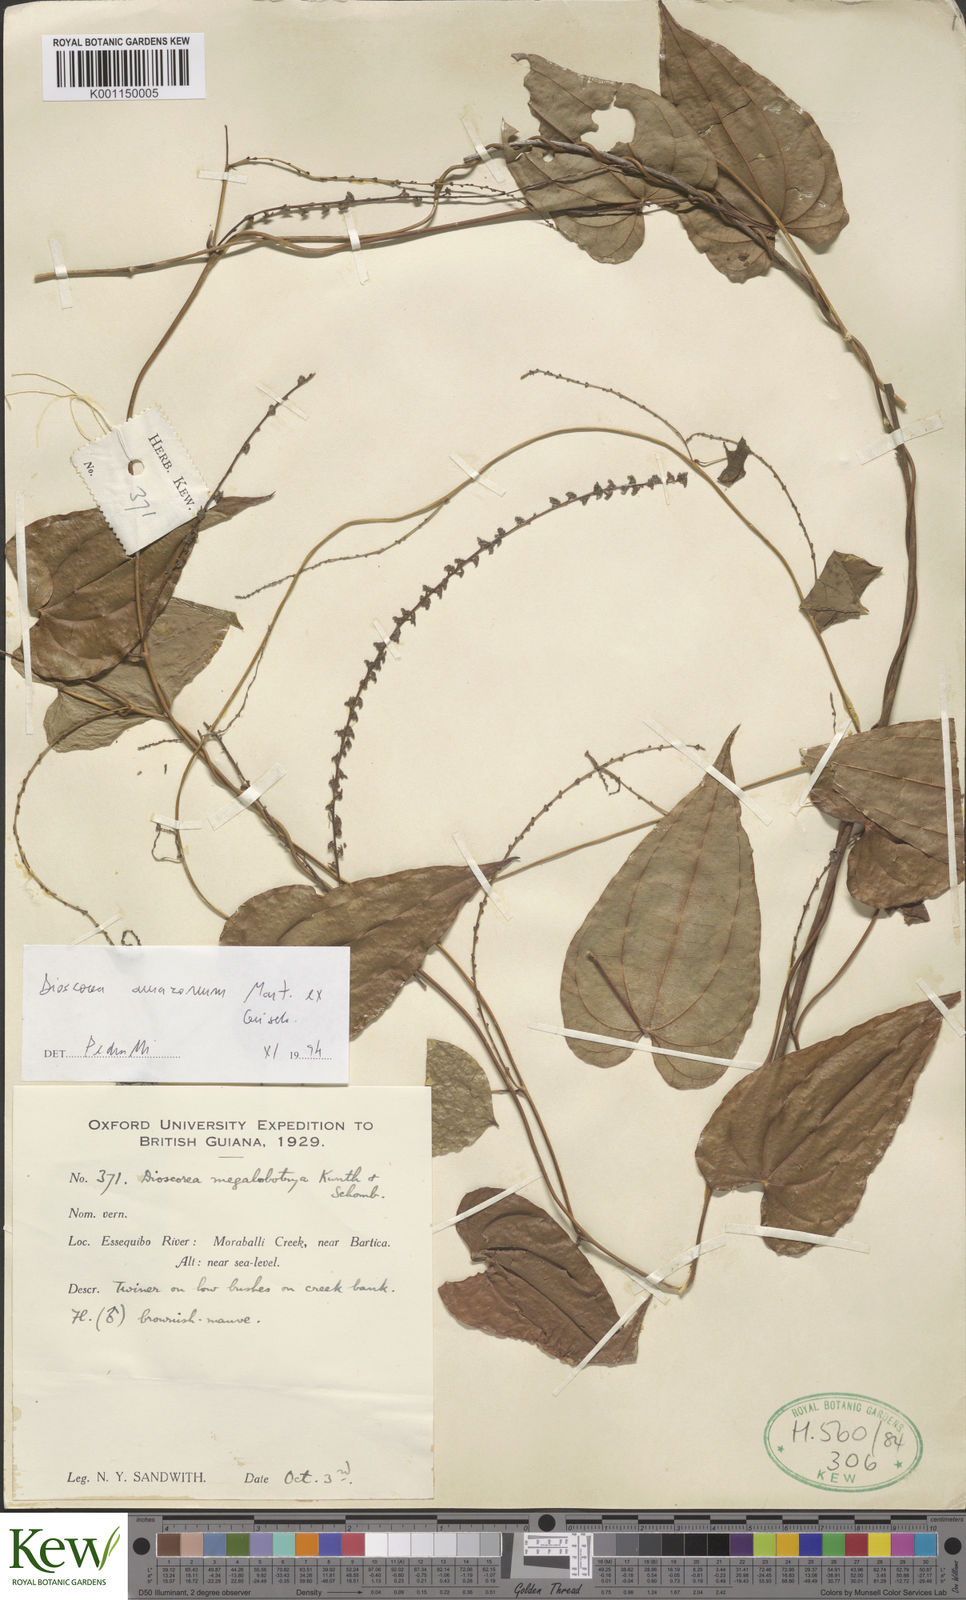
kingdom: Plantae
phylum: Tracheophyta
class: Liliopsida
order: Dioscoreales
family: Dioscoreaceae
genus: Dioscorea
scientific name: Dioscorea amazonum
